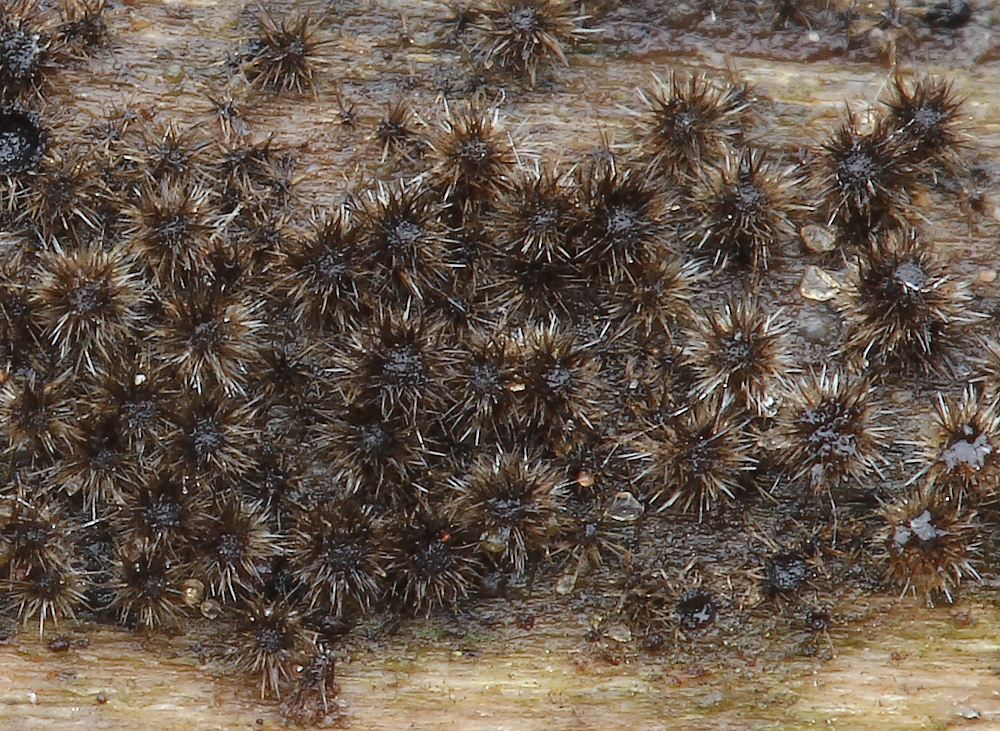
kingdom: Fungi
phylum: Ascomycota
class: Sordariomycetes
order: Sordariales
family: Helminthosphaeriaceae
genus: Echinosphaeria
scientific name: Echinosphaeria canescens
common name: brun børstekerne
